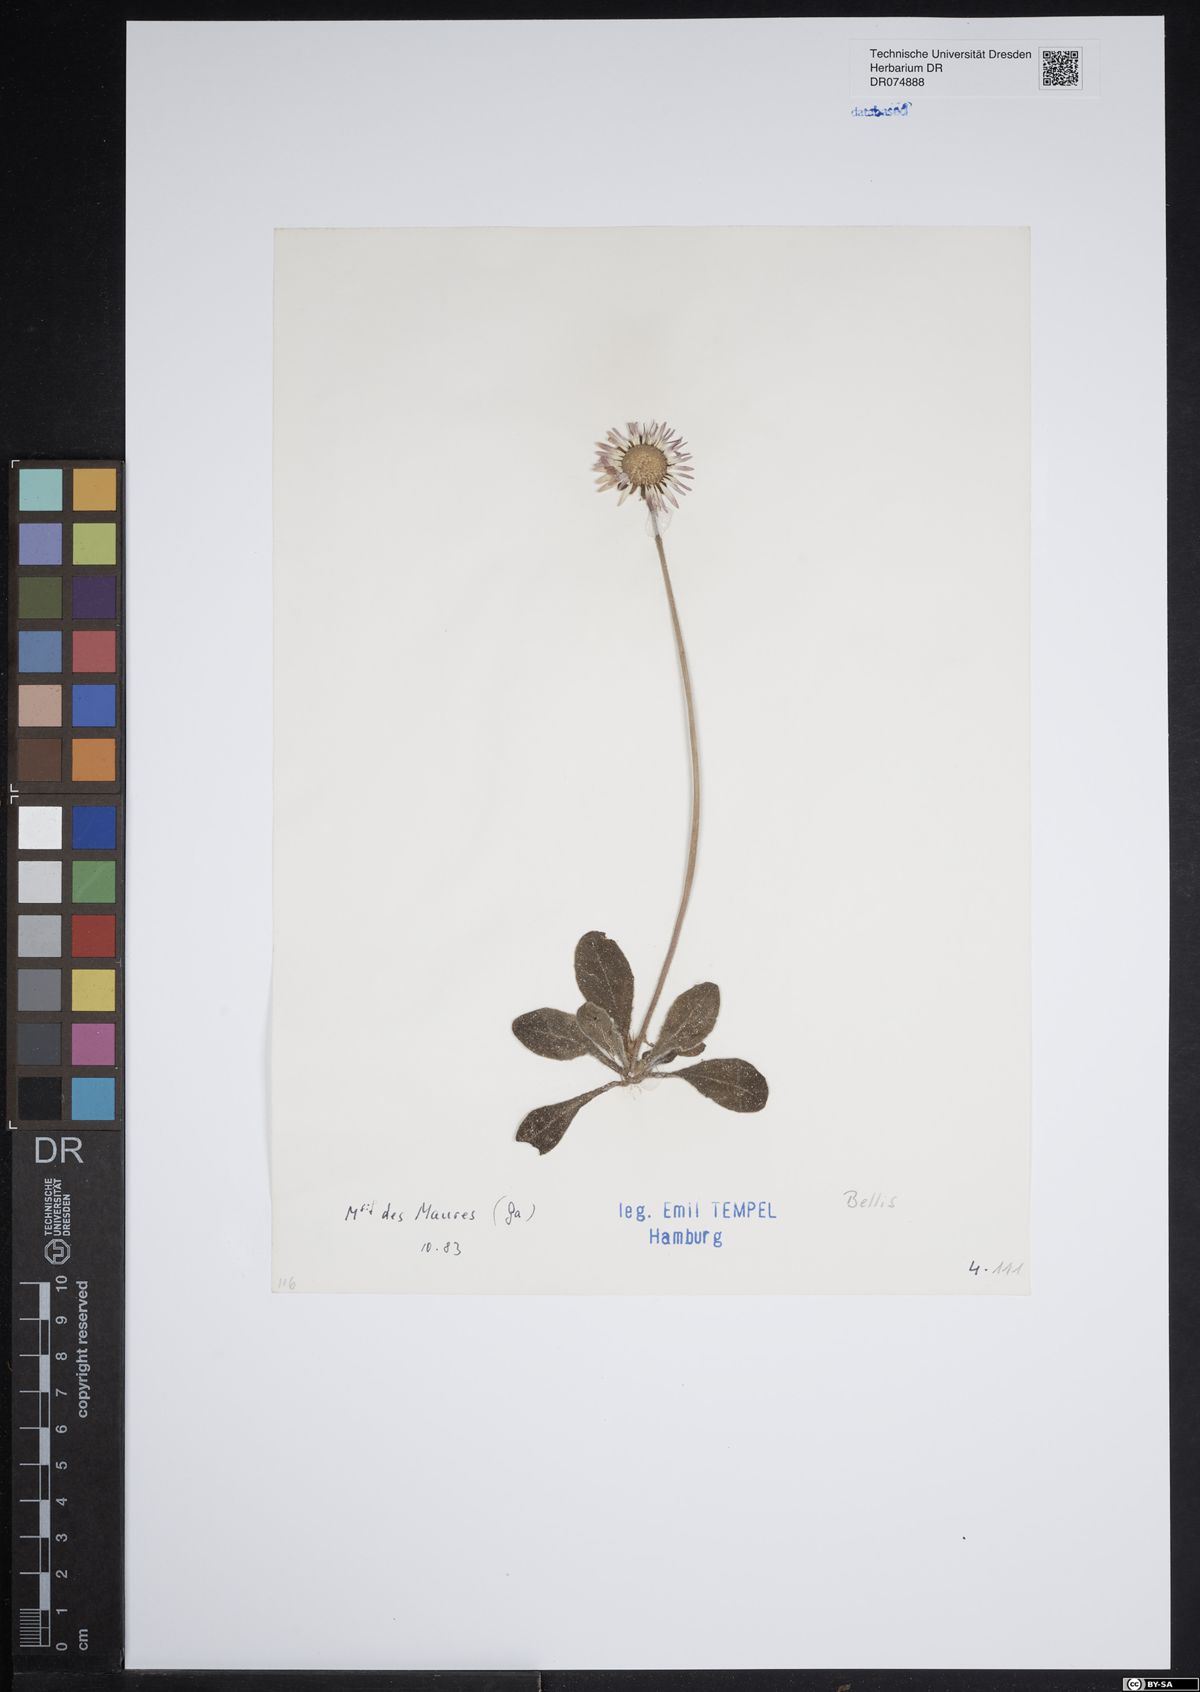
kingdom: Plantae
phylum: Tracheophyta
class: Magnoliopsida
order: Asterales
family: Asteraceae
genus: Bellis
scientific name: Bellis
